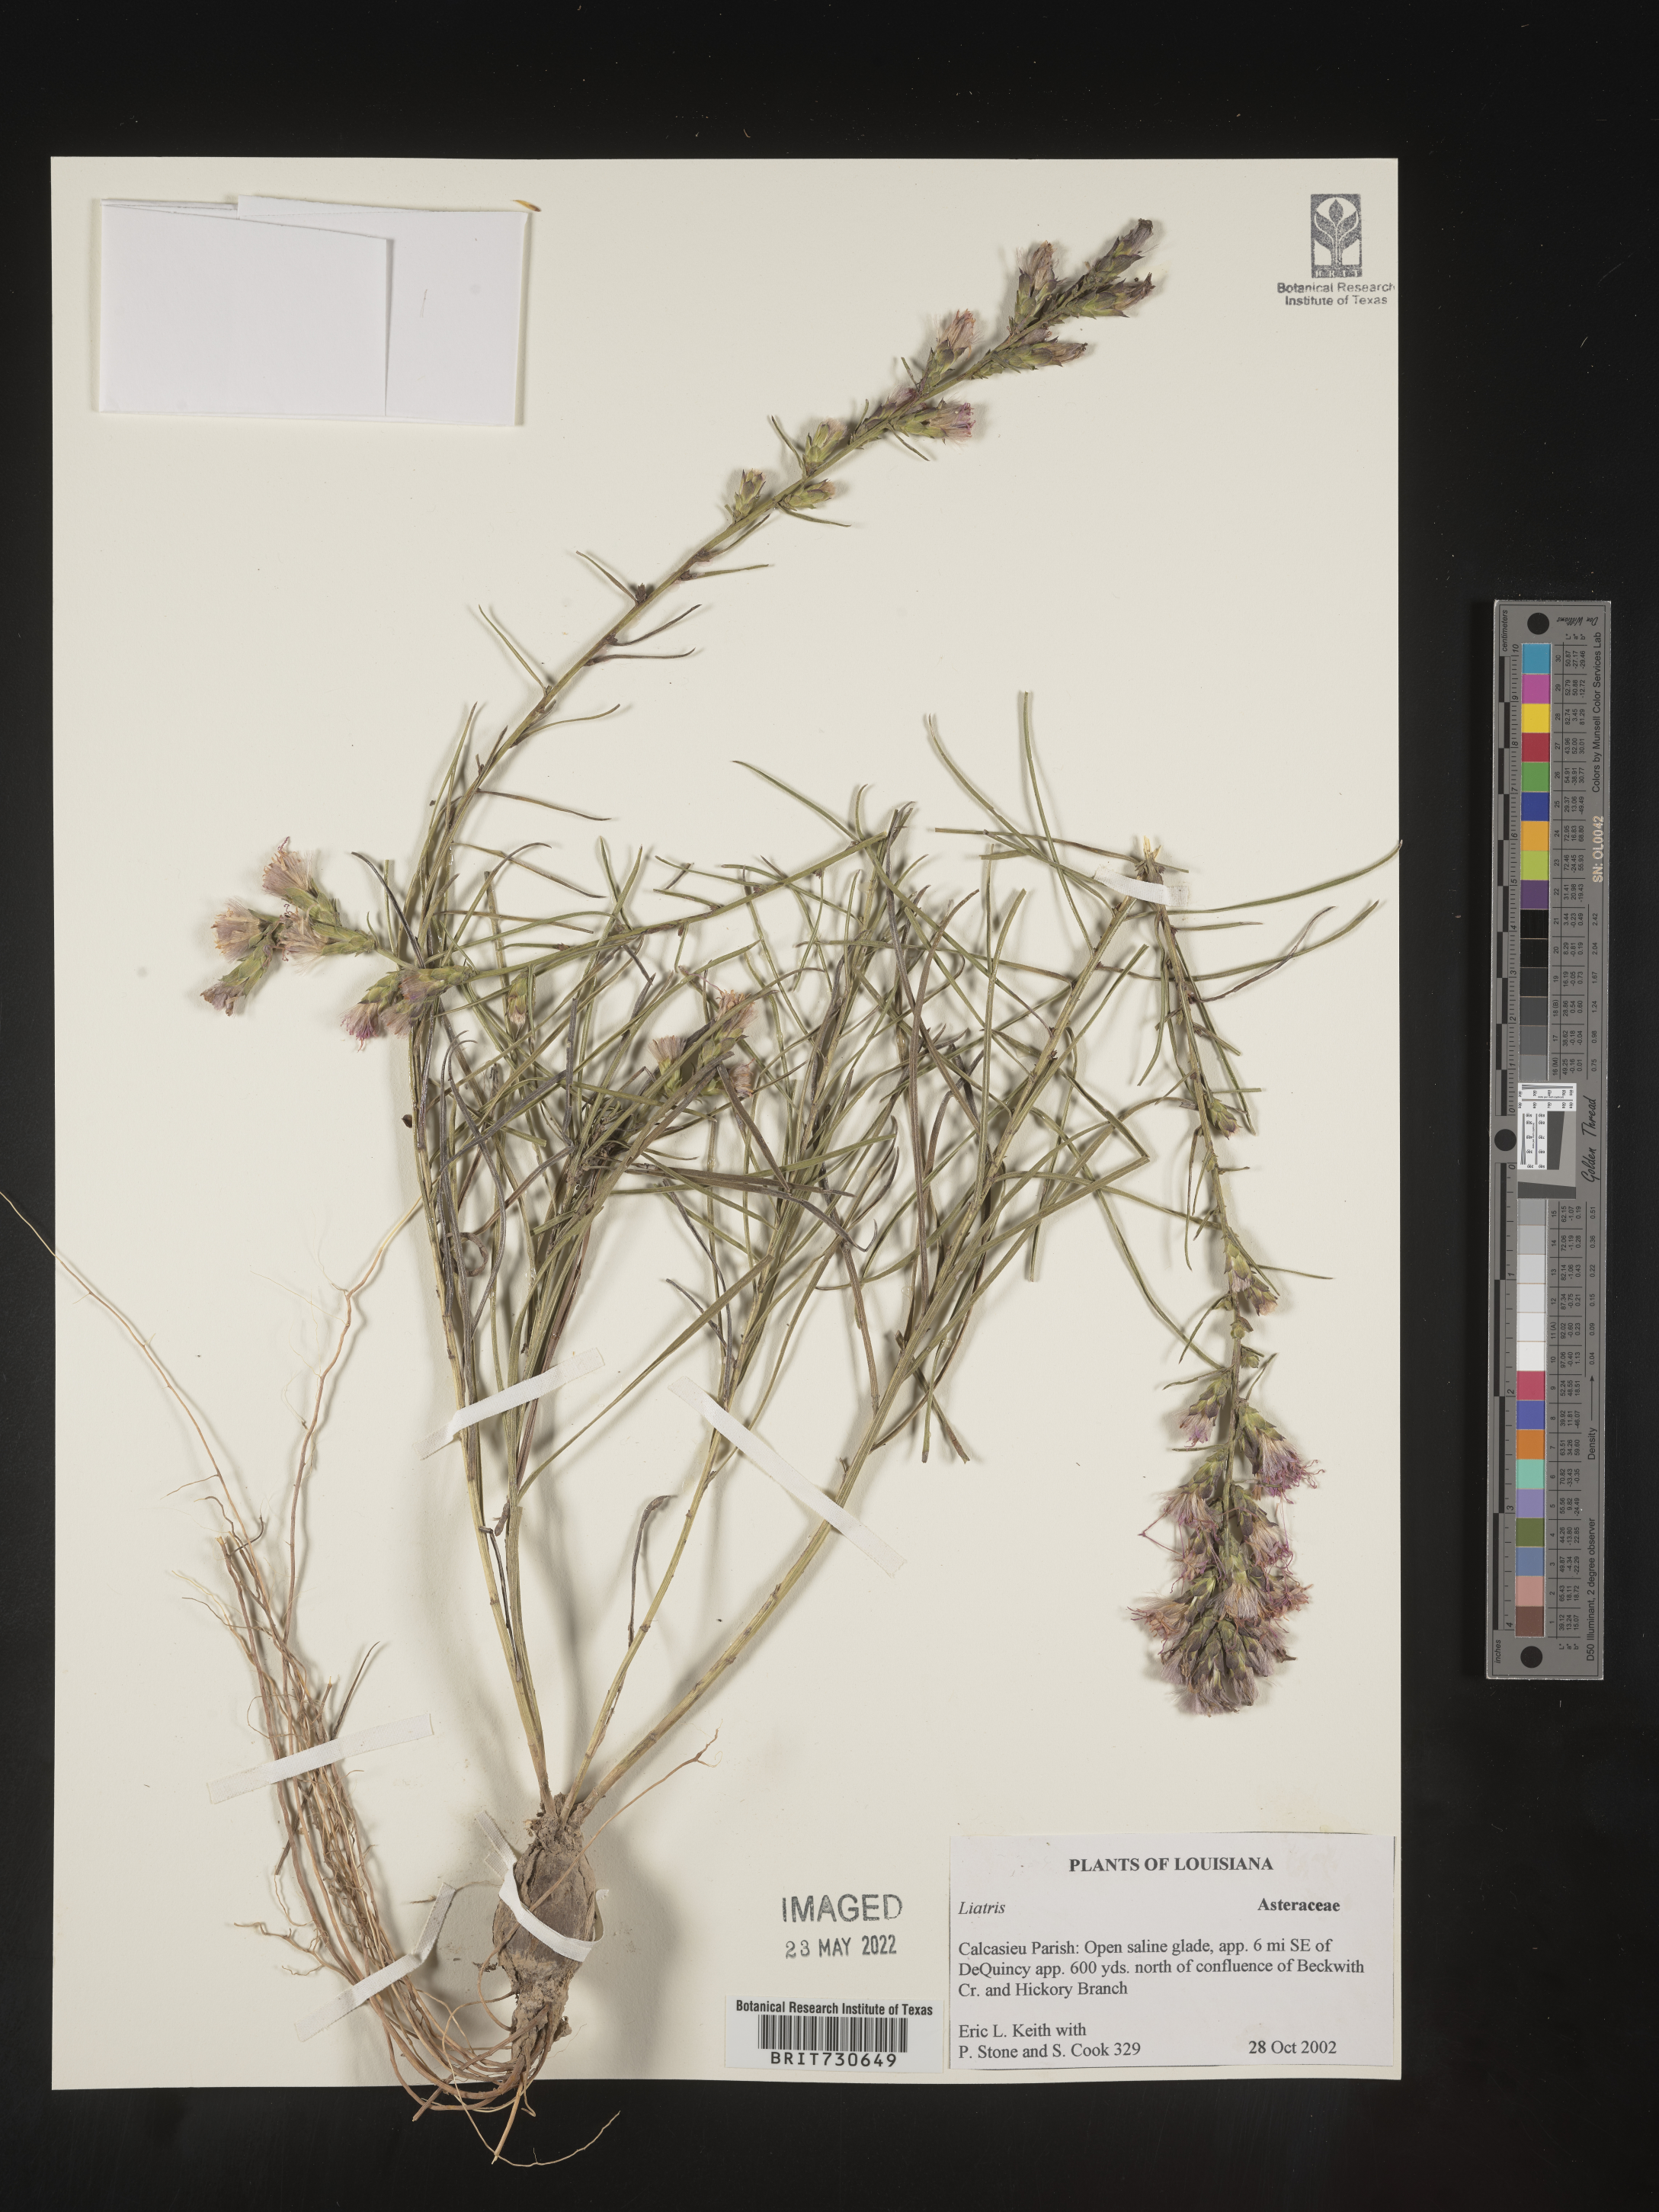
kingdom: Plantae
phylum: Tracheophyta
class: Magnoliopsida
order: Asterales
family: Asteraceae
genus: Liatris
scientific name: Liatris punctata
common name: Dotted gayfeather
